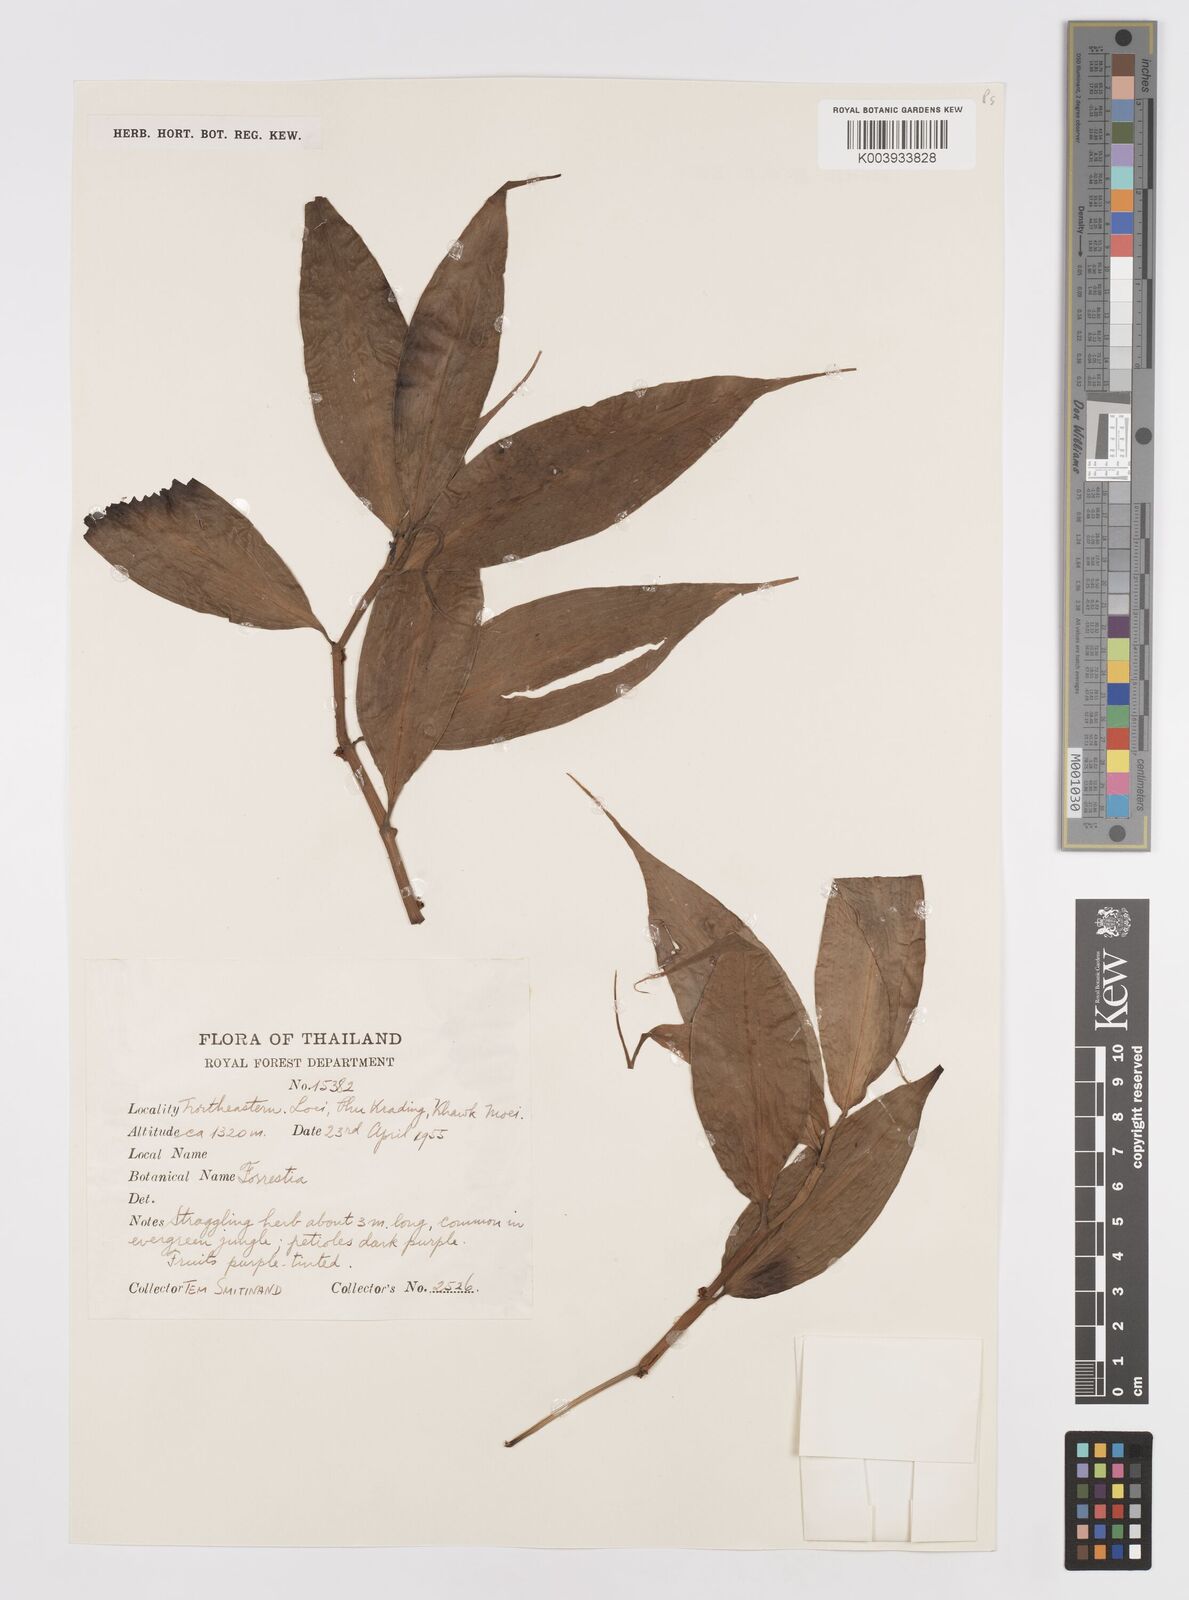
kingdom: Plantae
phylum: Tracheophyta
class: Liliopsida
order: Commelinales
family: Commelinaceae
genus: Amischotolype
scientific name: Amischotolype glabrata
